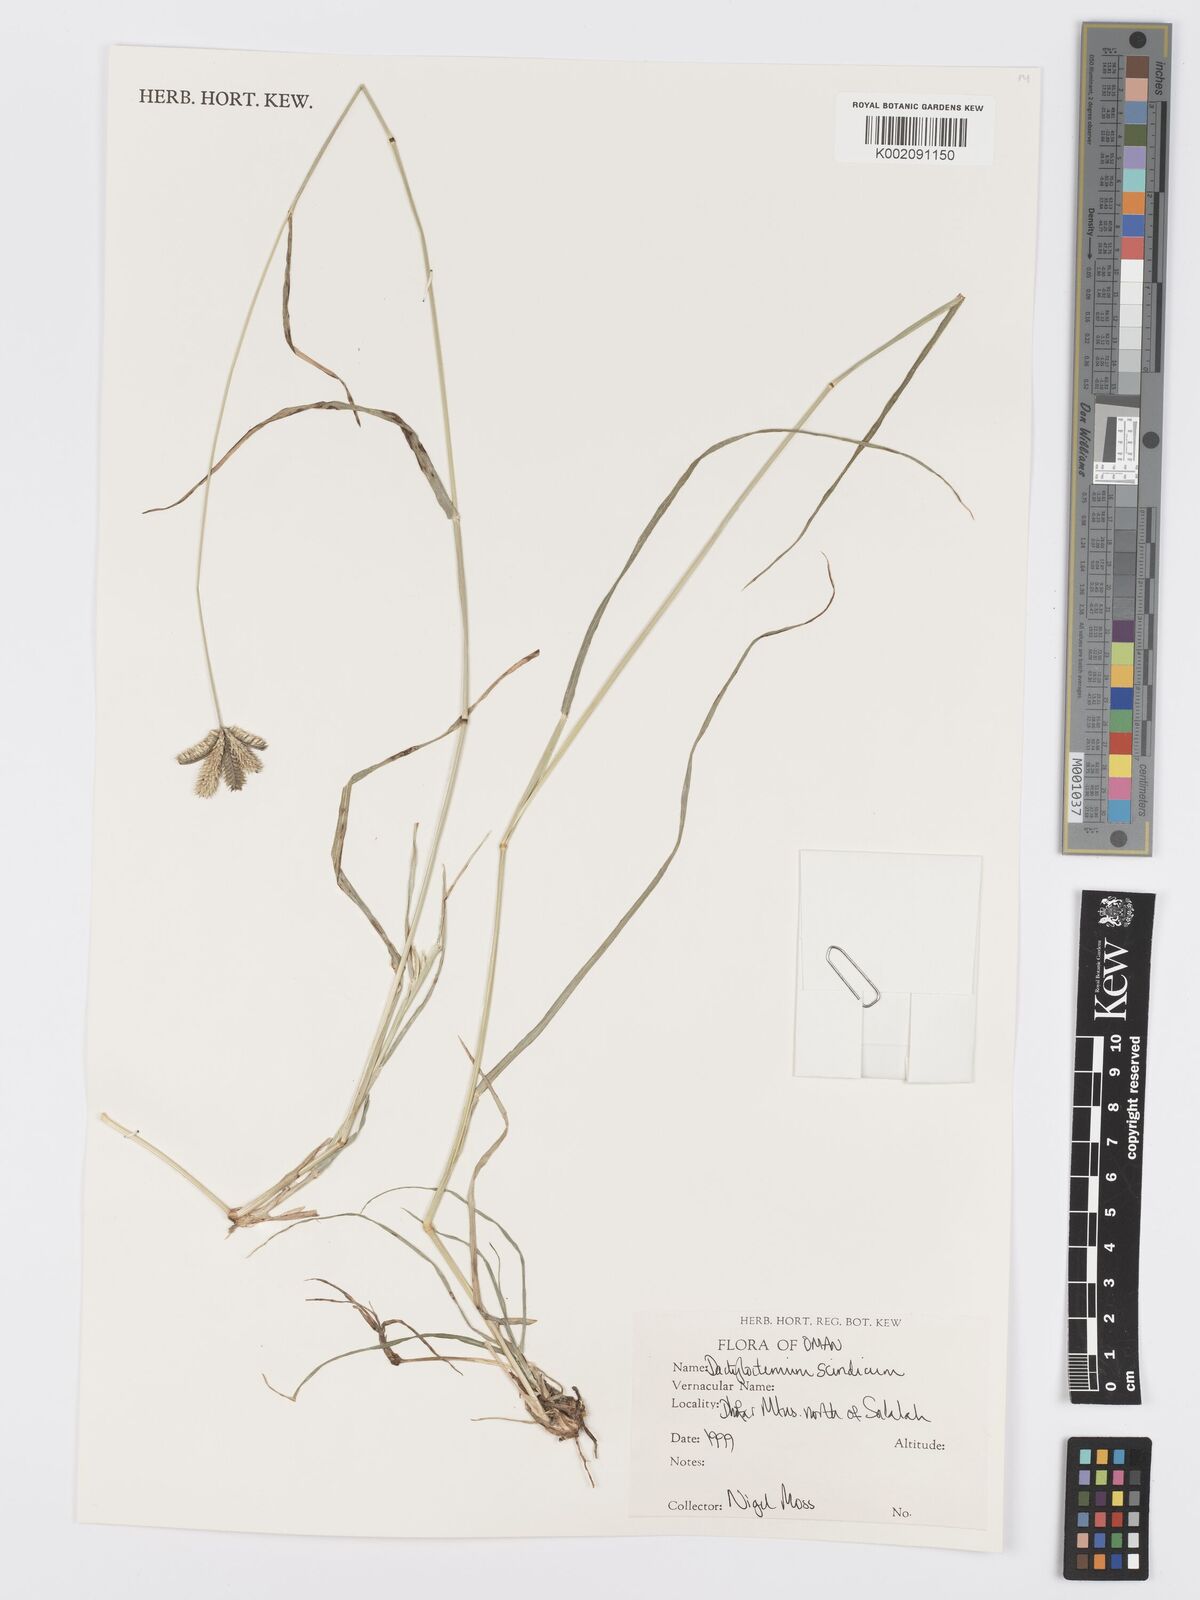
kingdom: Plantae
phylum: Tracheophyta
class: Liliopsida
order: Poales
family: Poaceae
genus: Dactyloctenium
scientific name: Dactyloctenium scindicum
